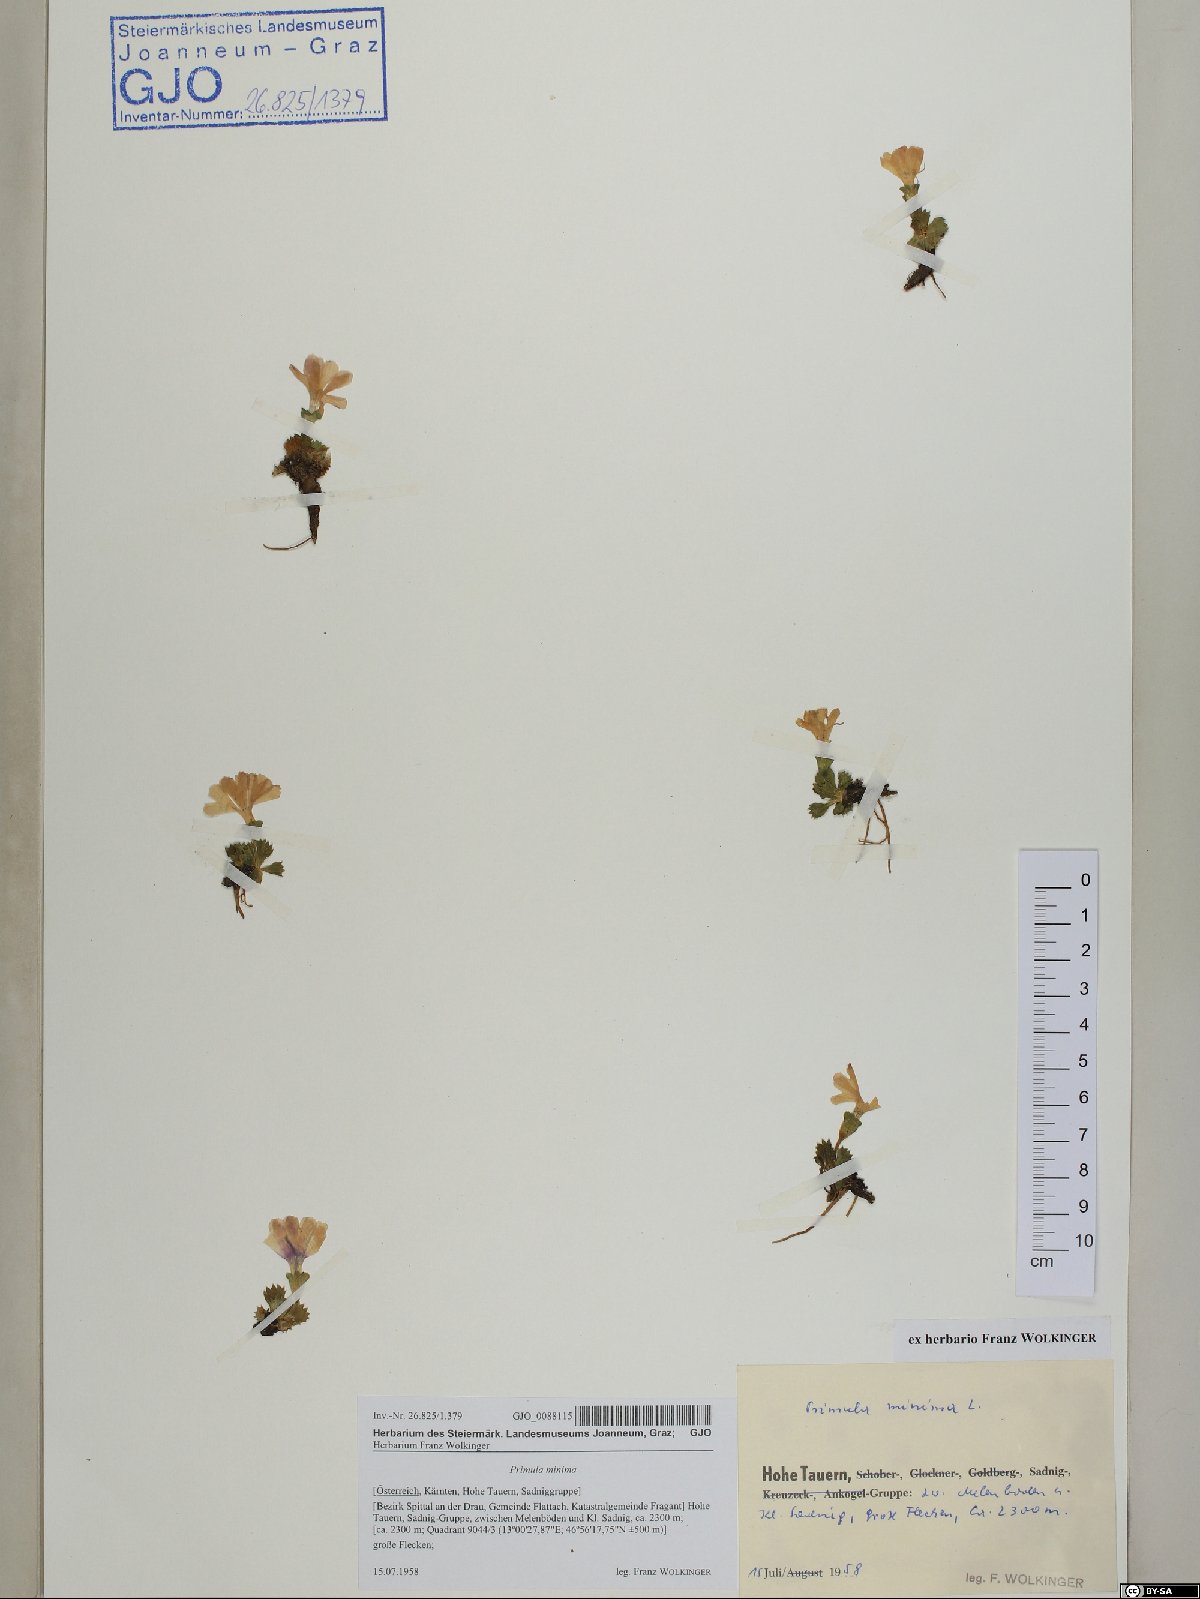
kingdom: Plantae
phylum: Tracheophyta
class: Magnoliopsida
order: Ericales
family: Primulaceae
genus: Primula
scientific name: Primula minima
